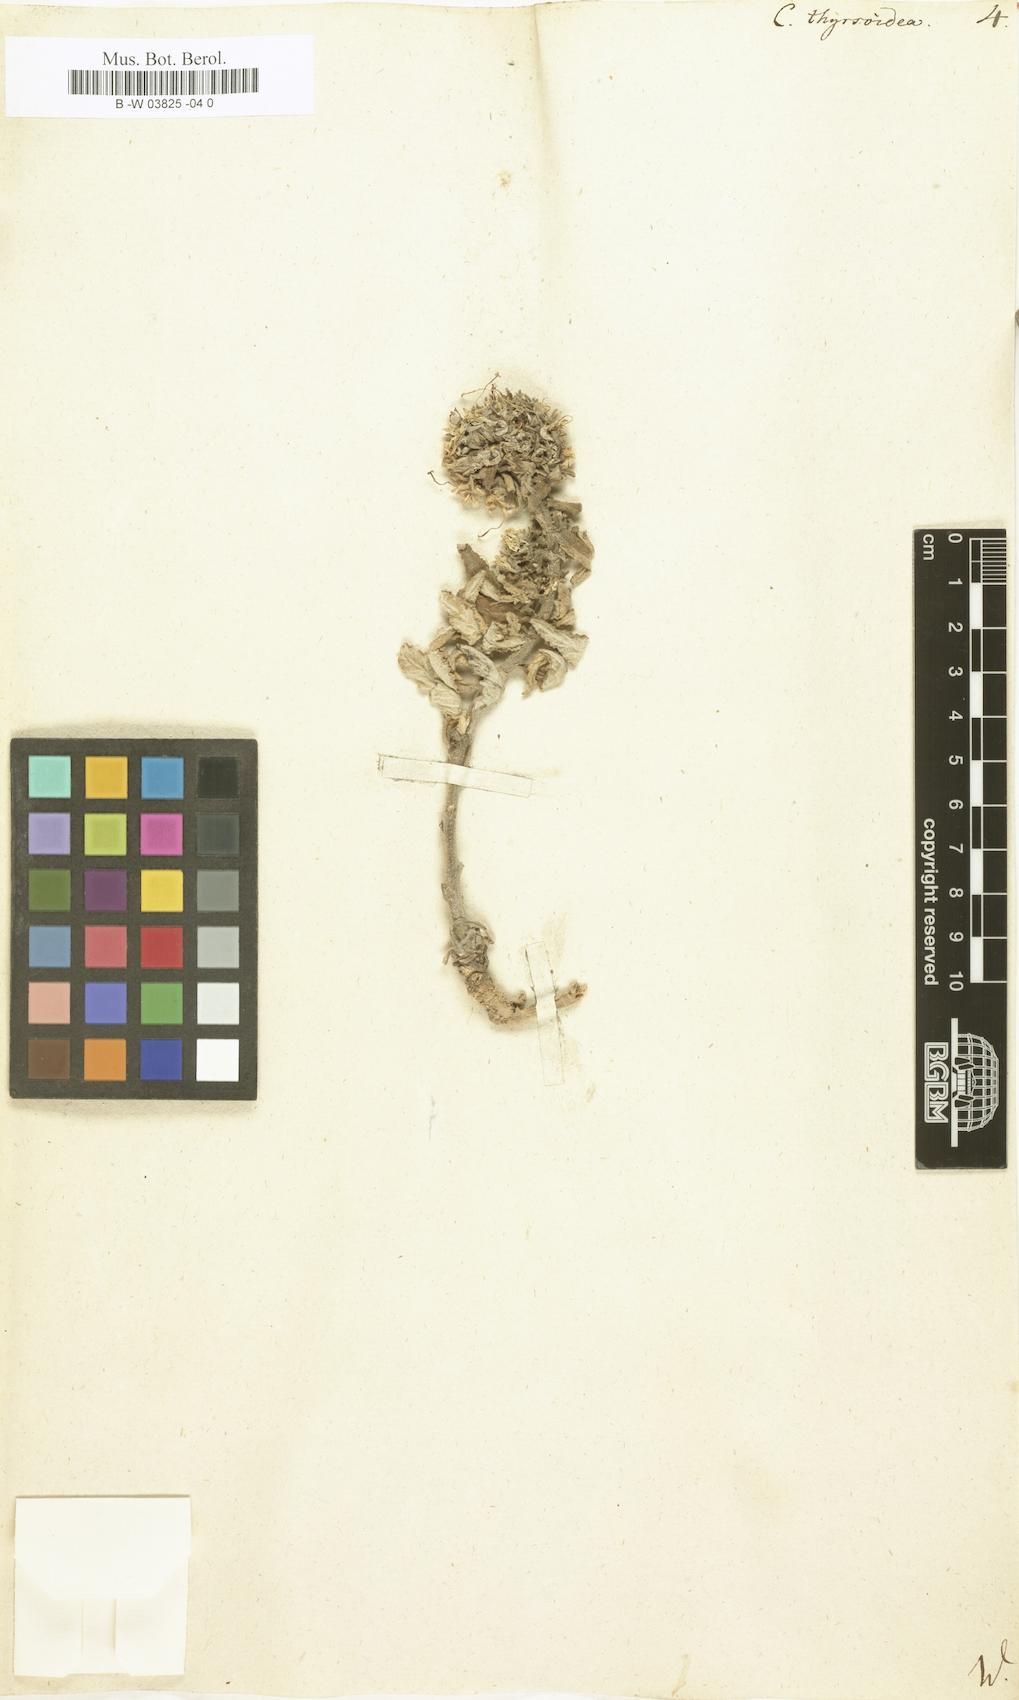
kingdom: Plantae
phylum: Tracheophyta
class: Magnoliopsida
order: Asterales
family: Campanulaceae
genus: Campanula
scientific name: Campanula speciosa
